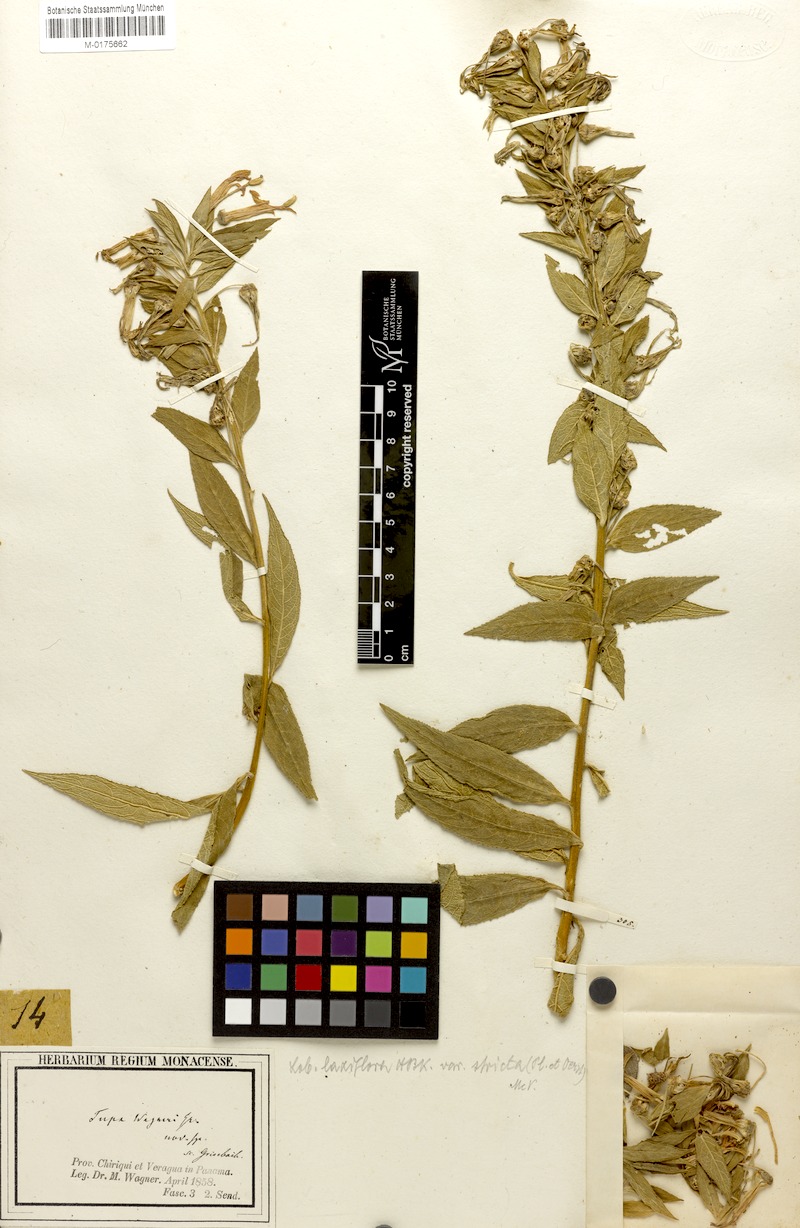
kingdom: Plantae
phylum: Tracheophyta
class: Magnoliopsida
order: Asterales
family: Campanulaceae
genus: Lobelia
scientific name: Lobelia laxiflora
